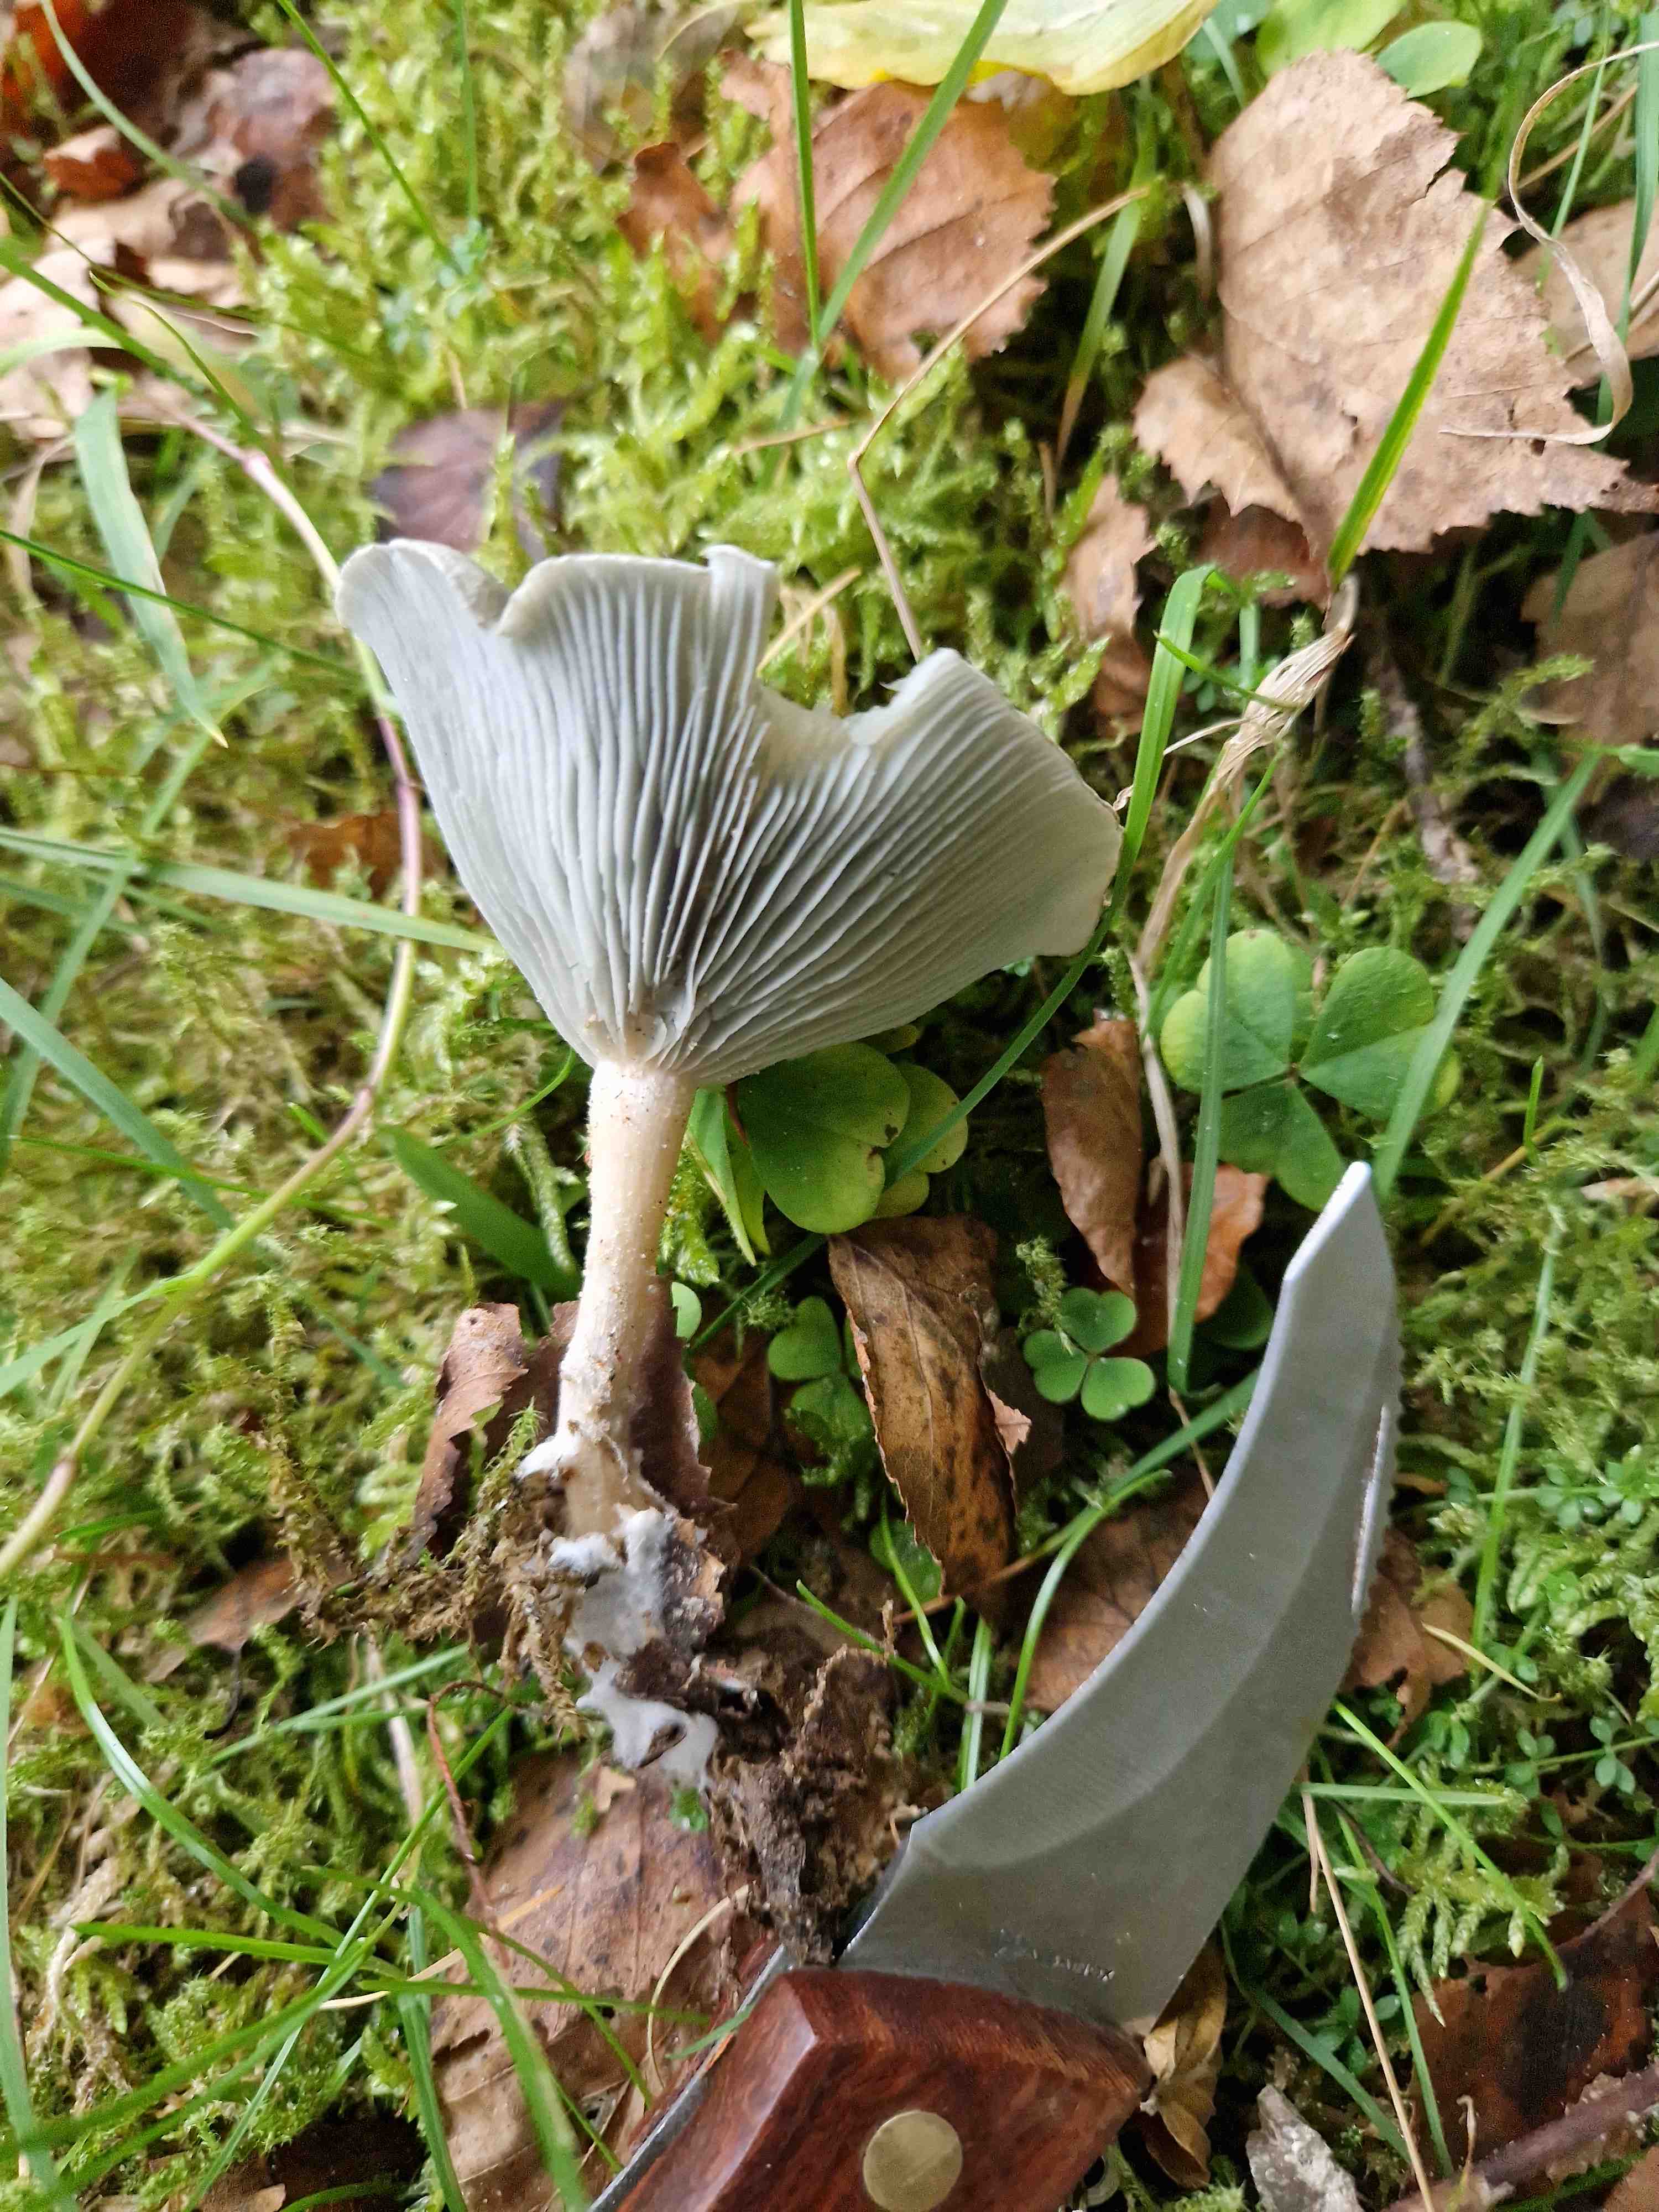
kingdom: Fungi
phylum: Basidiomycota
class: Agaricomycetes
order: Agaricales
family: Tricholomataceae
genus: Clitocybe
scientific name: Clitocybe odora
